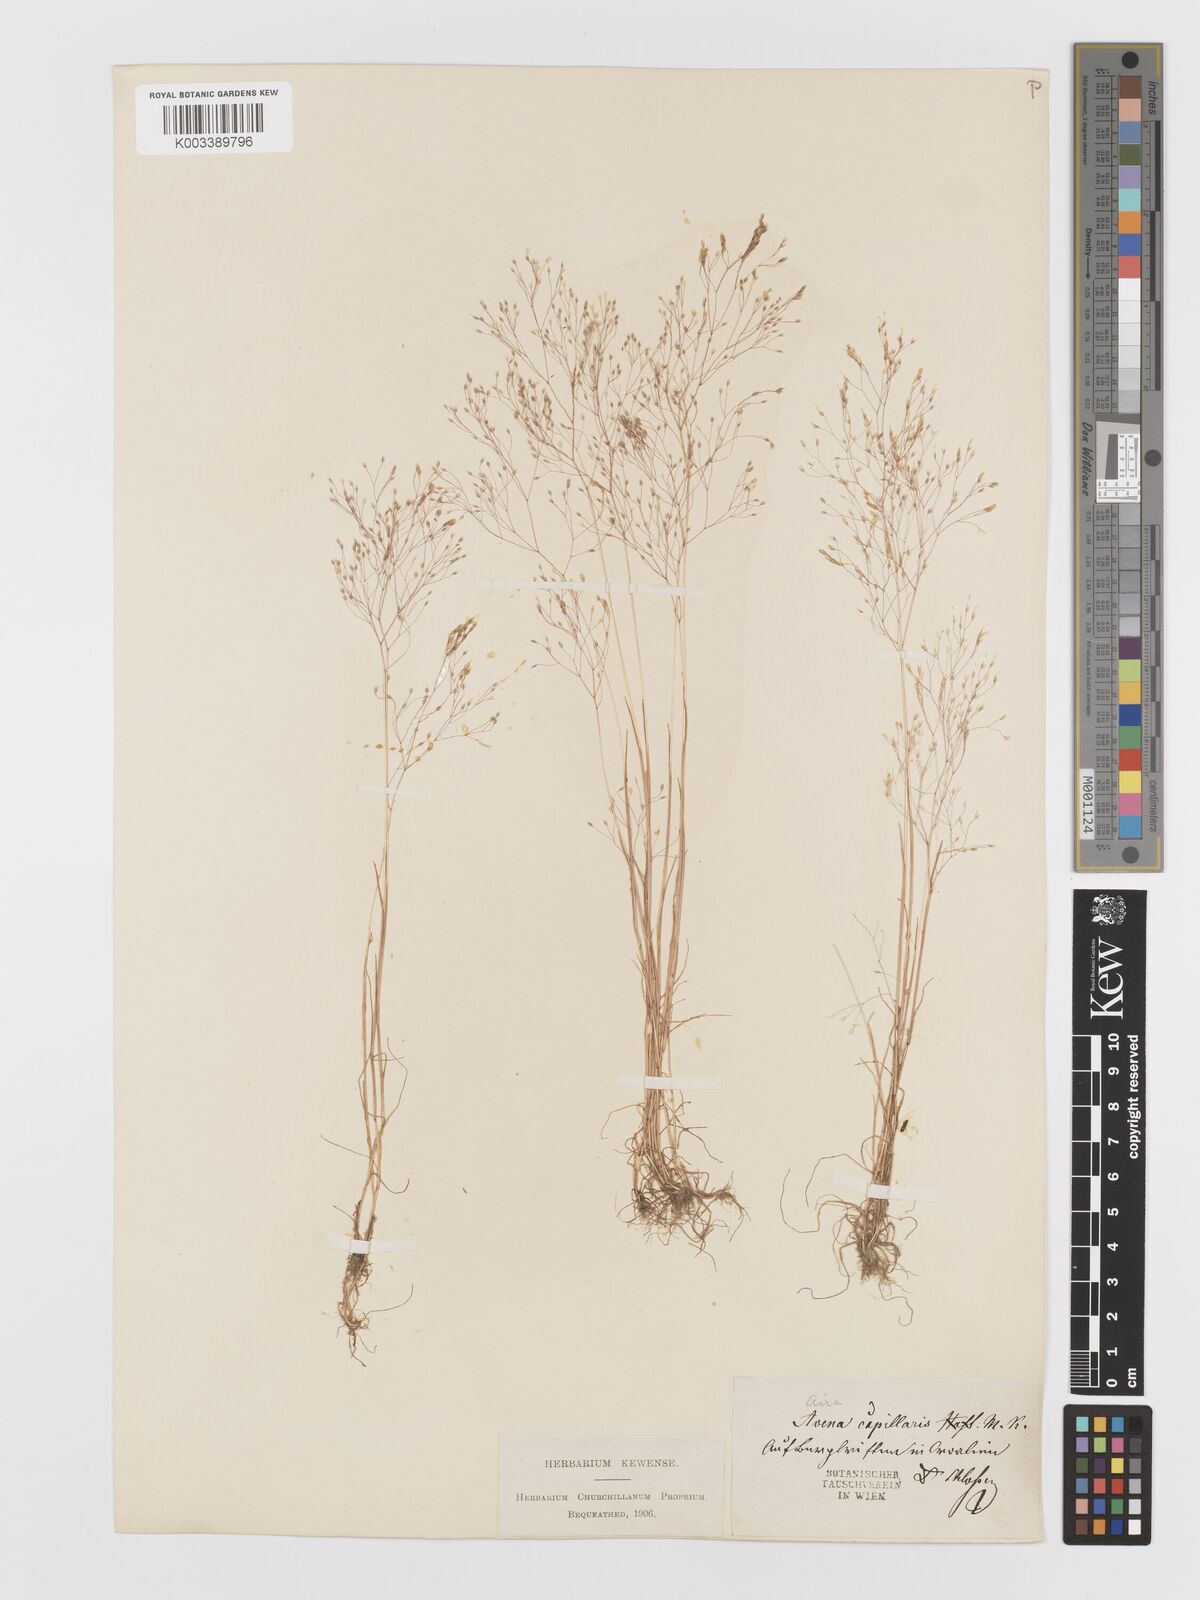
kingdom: Plantae
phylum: Tracheophyta
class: Liliopsida
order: Poales
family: Poaceae
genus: Aira
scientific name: Aira elegans
